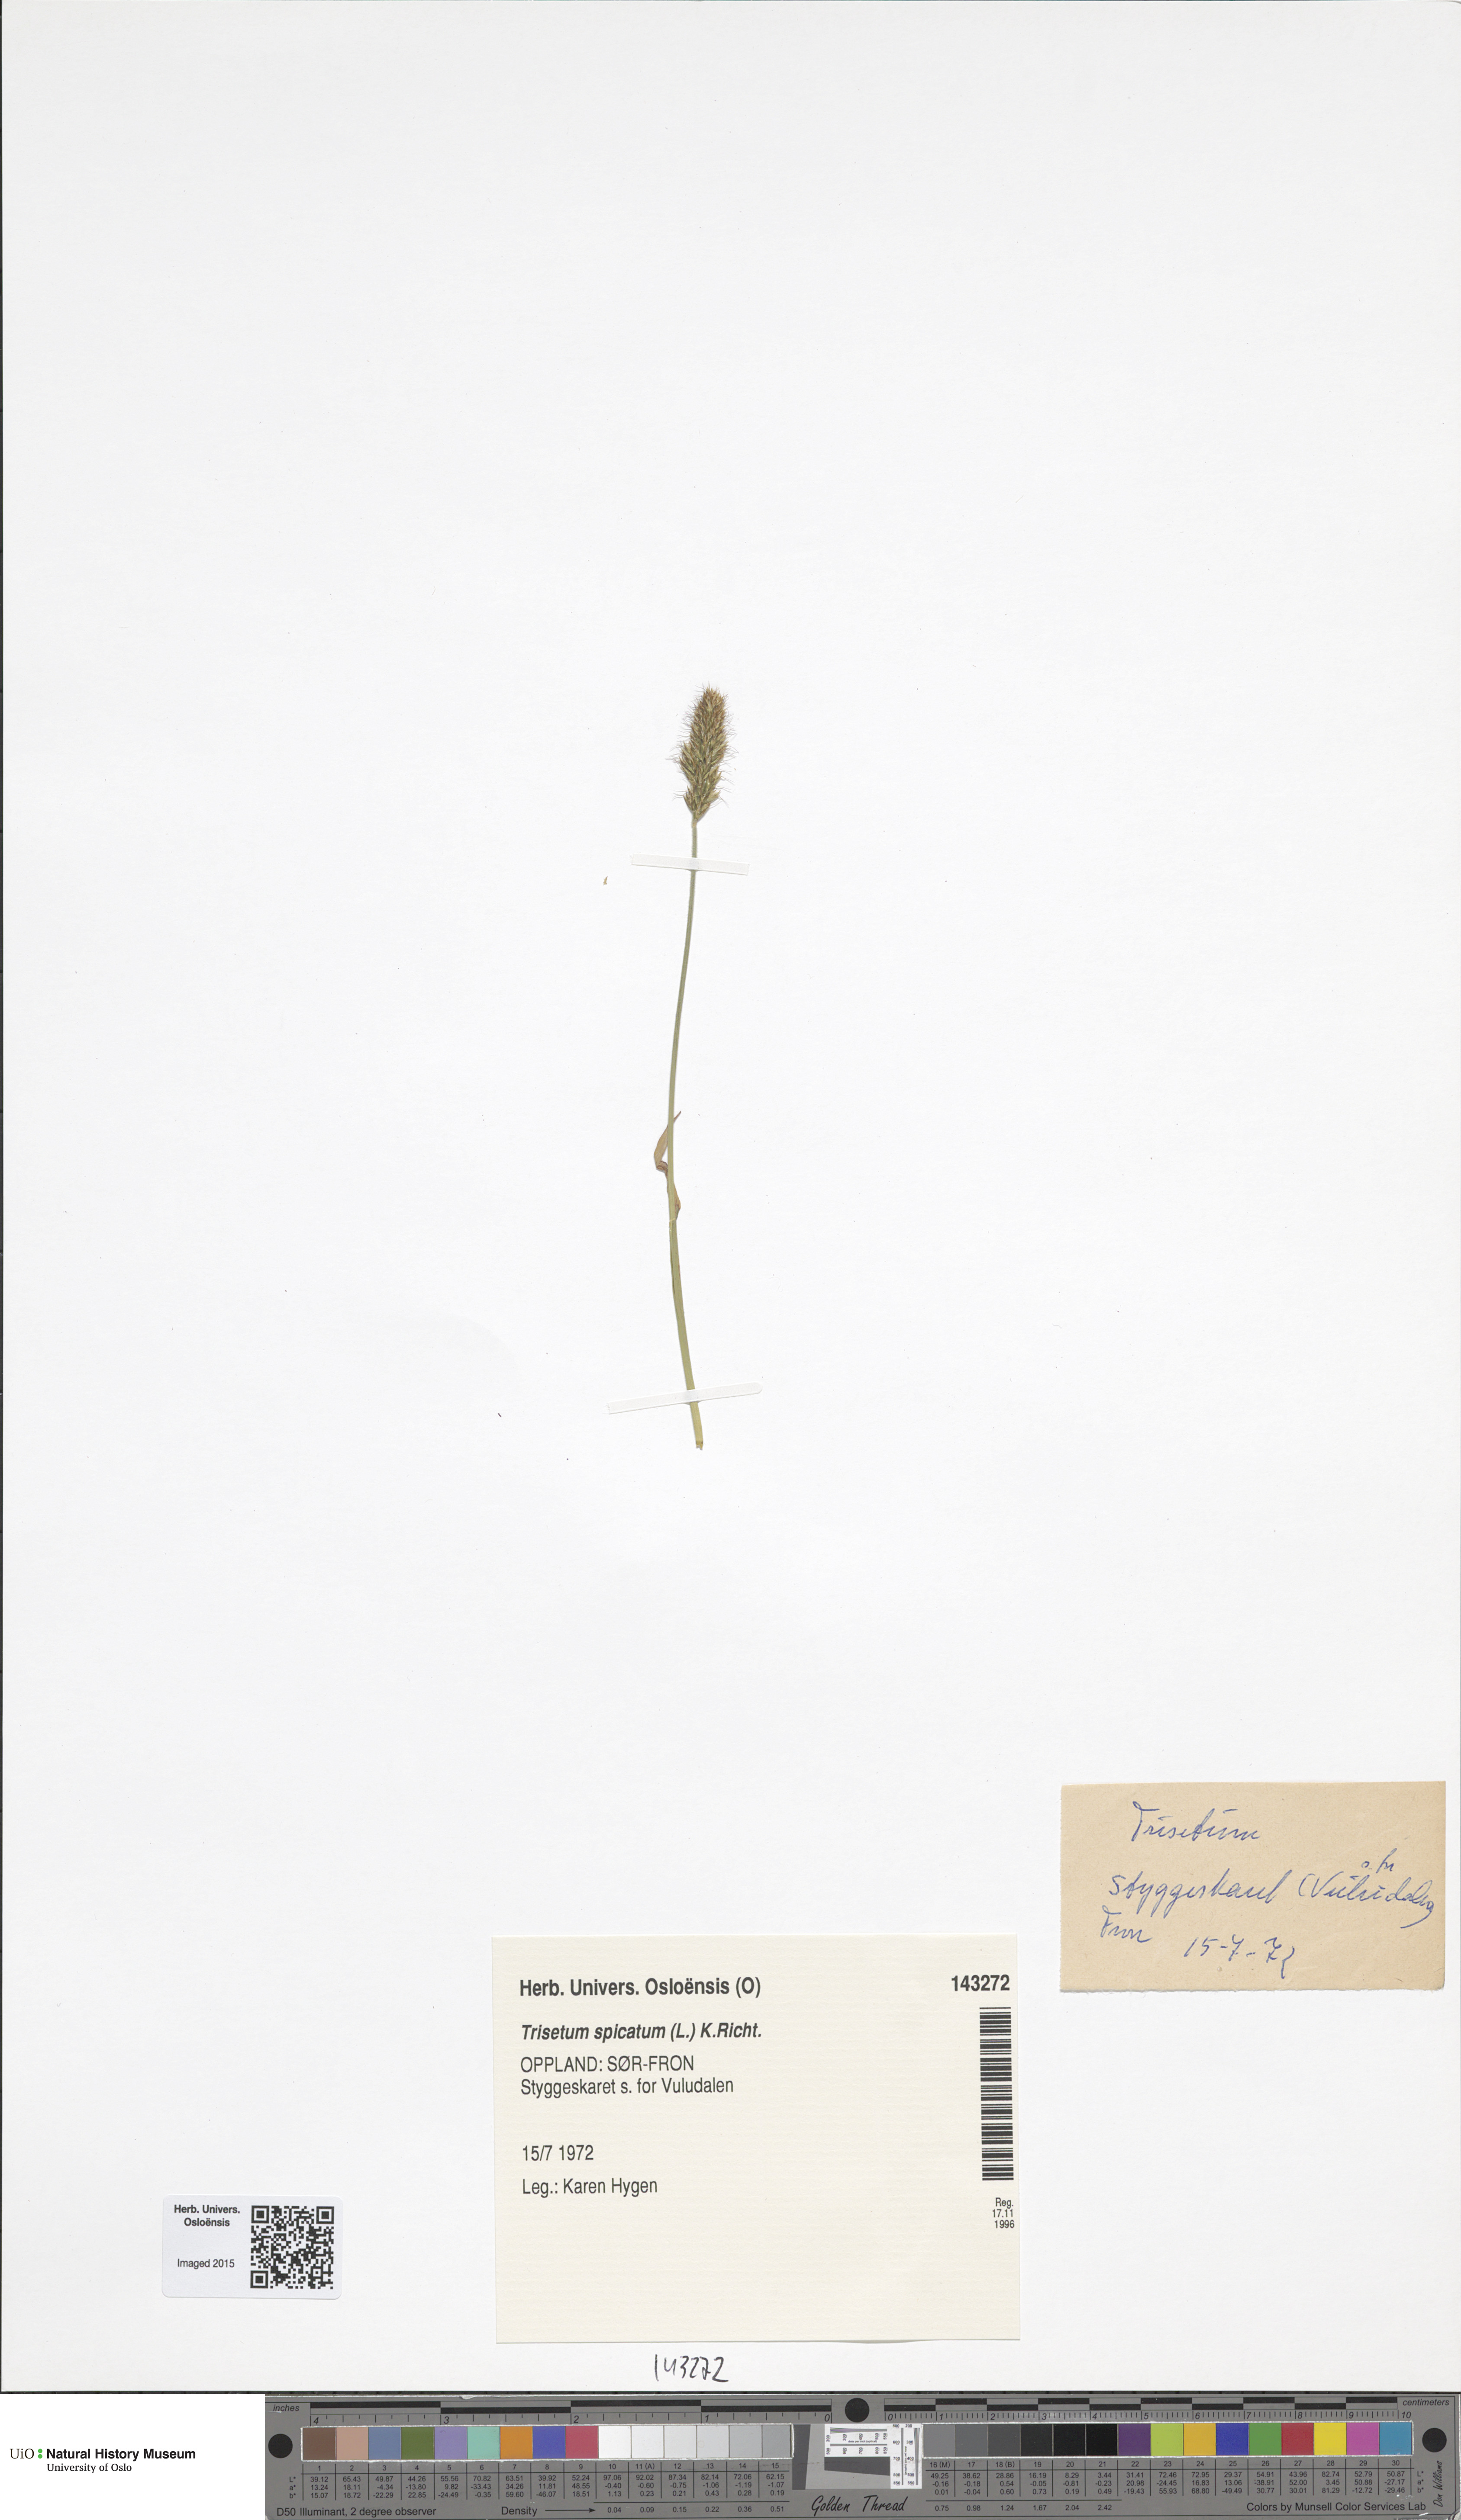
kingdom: Plantae
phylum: Tracheophyta
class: Liliopsida
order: Poales
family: Poaceae
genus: Koeleria
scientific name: Koeleria spicata
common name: Mountain trisetum
